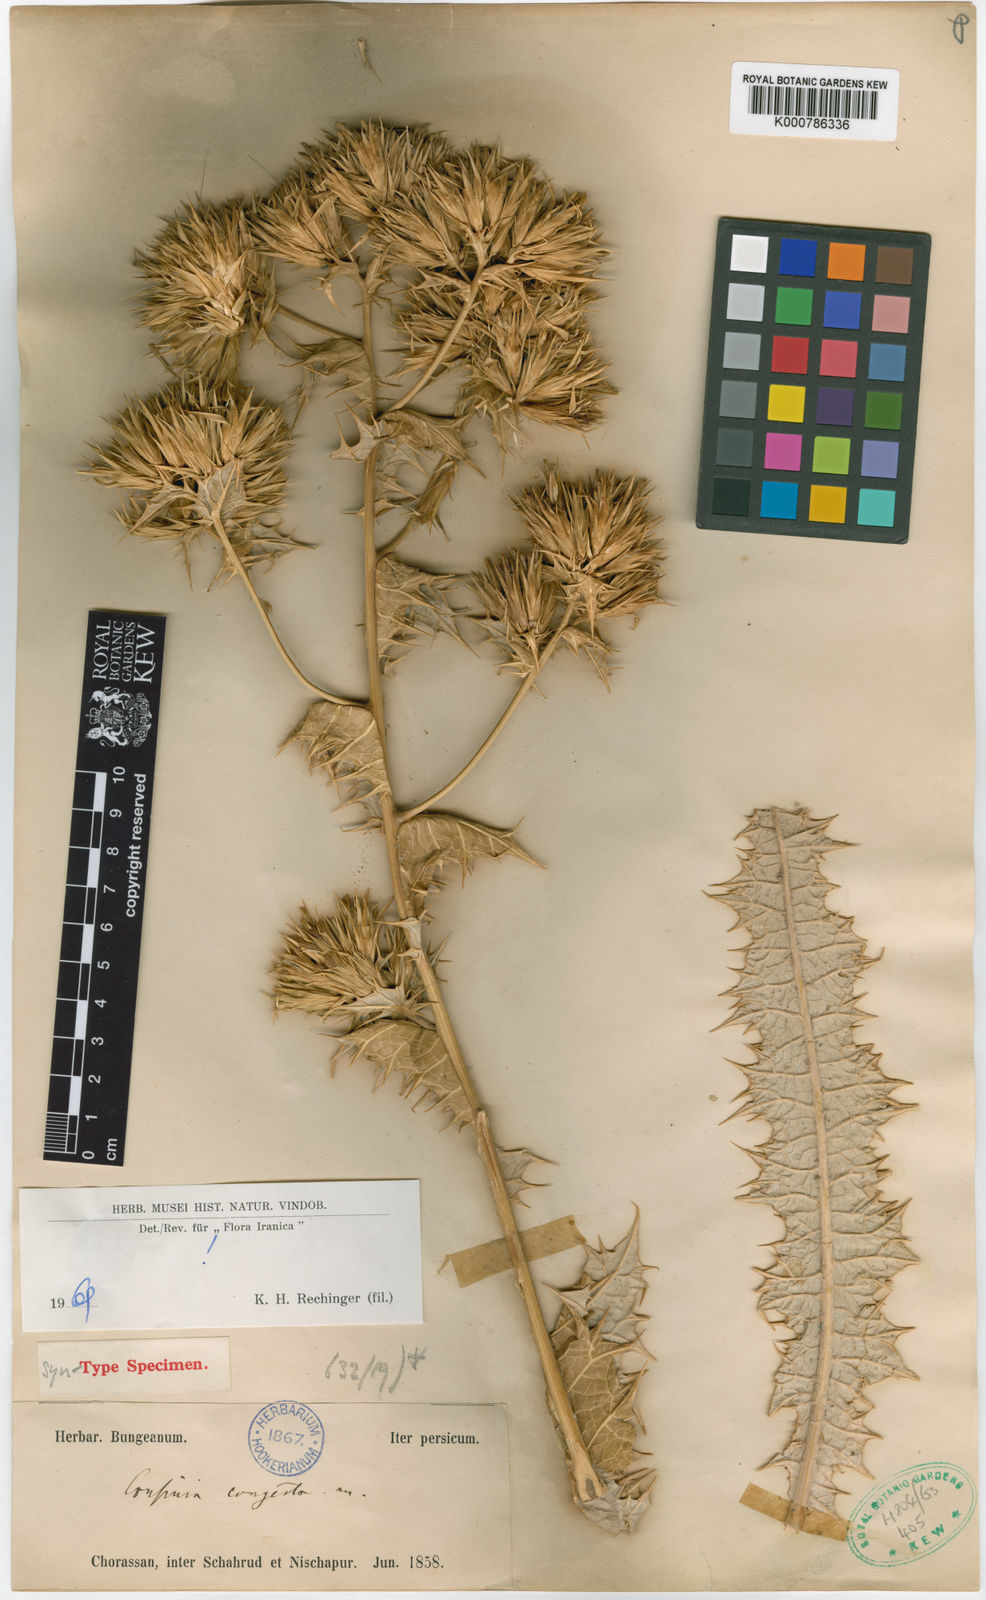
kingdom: Plantae
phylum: Tracheophyta
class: Magnoliopsida
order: Asterales
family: Asteraceae
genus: Cousinia
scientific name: Cousinia congesta
